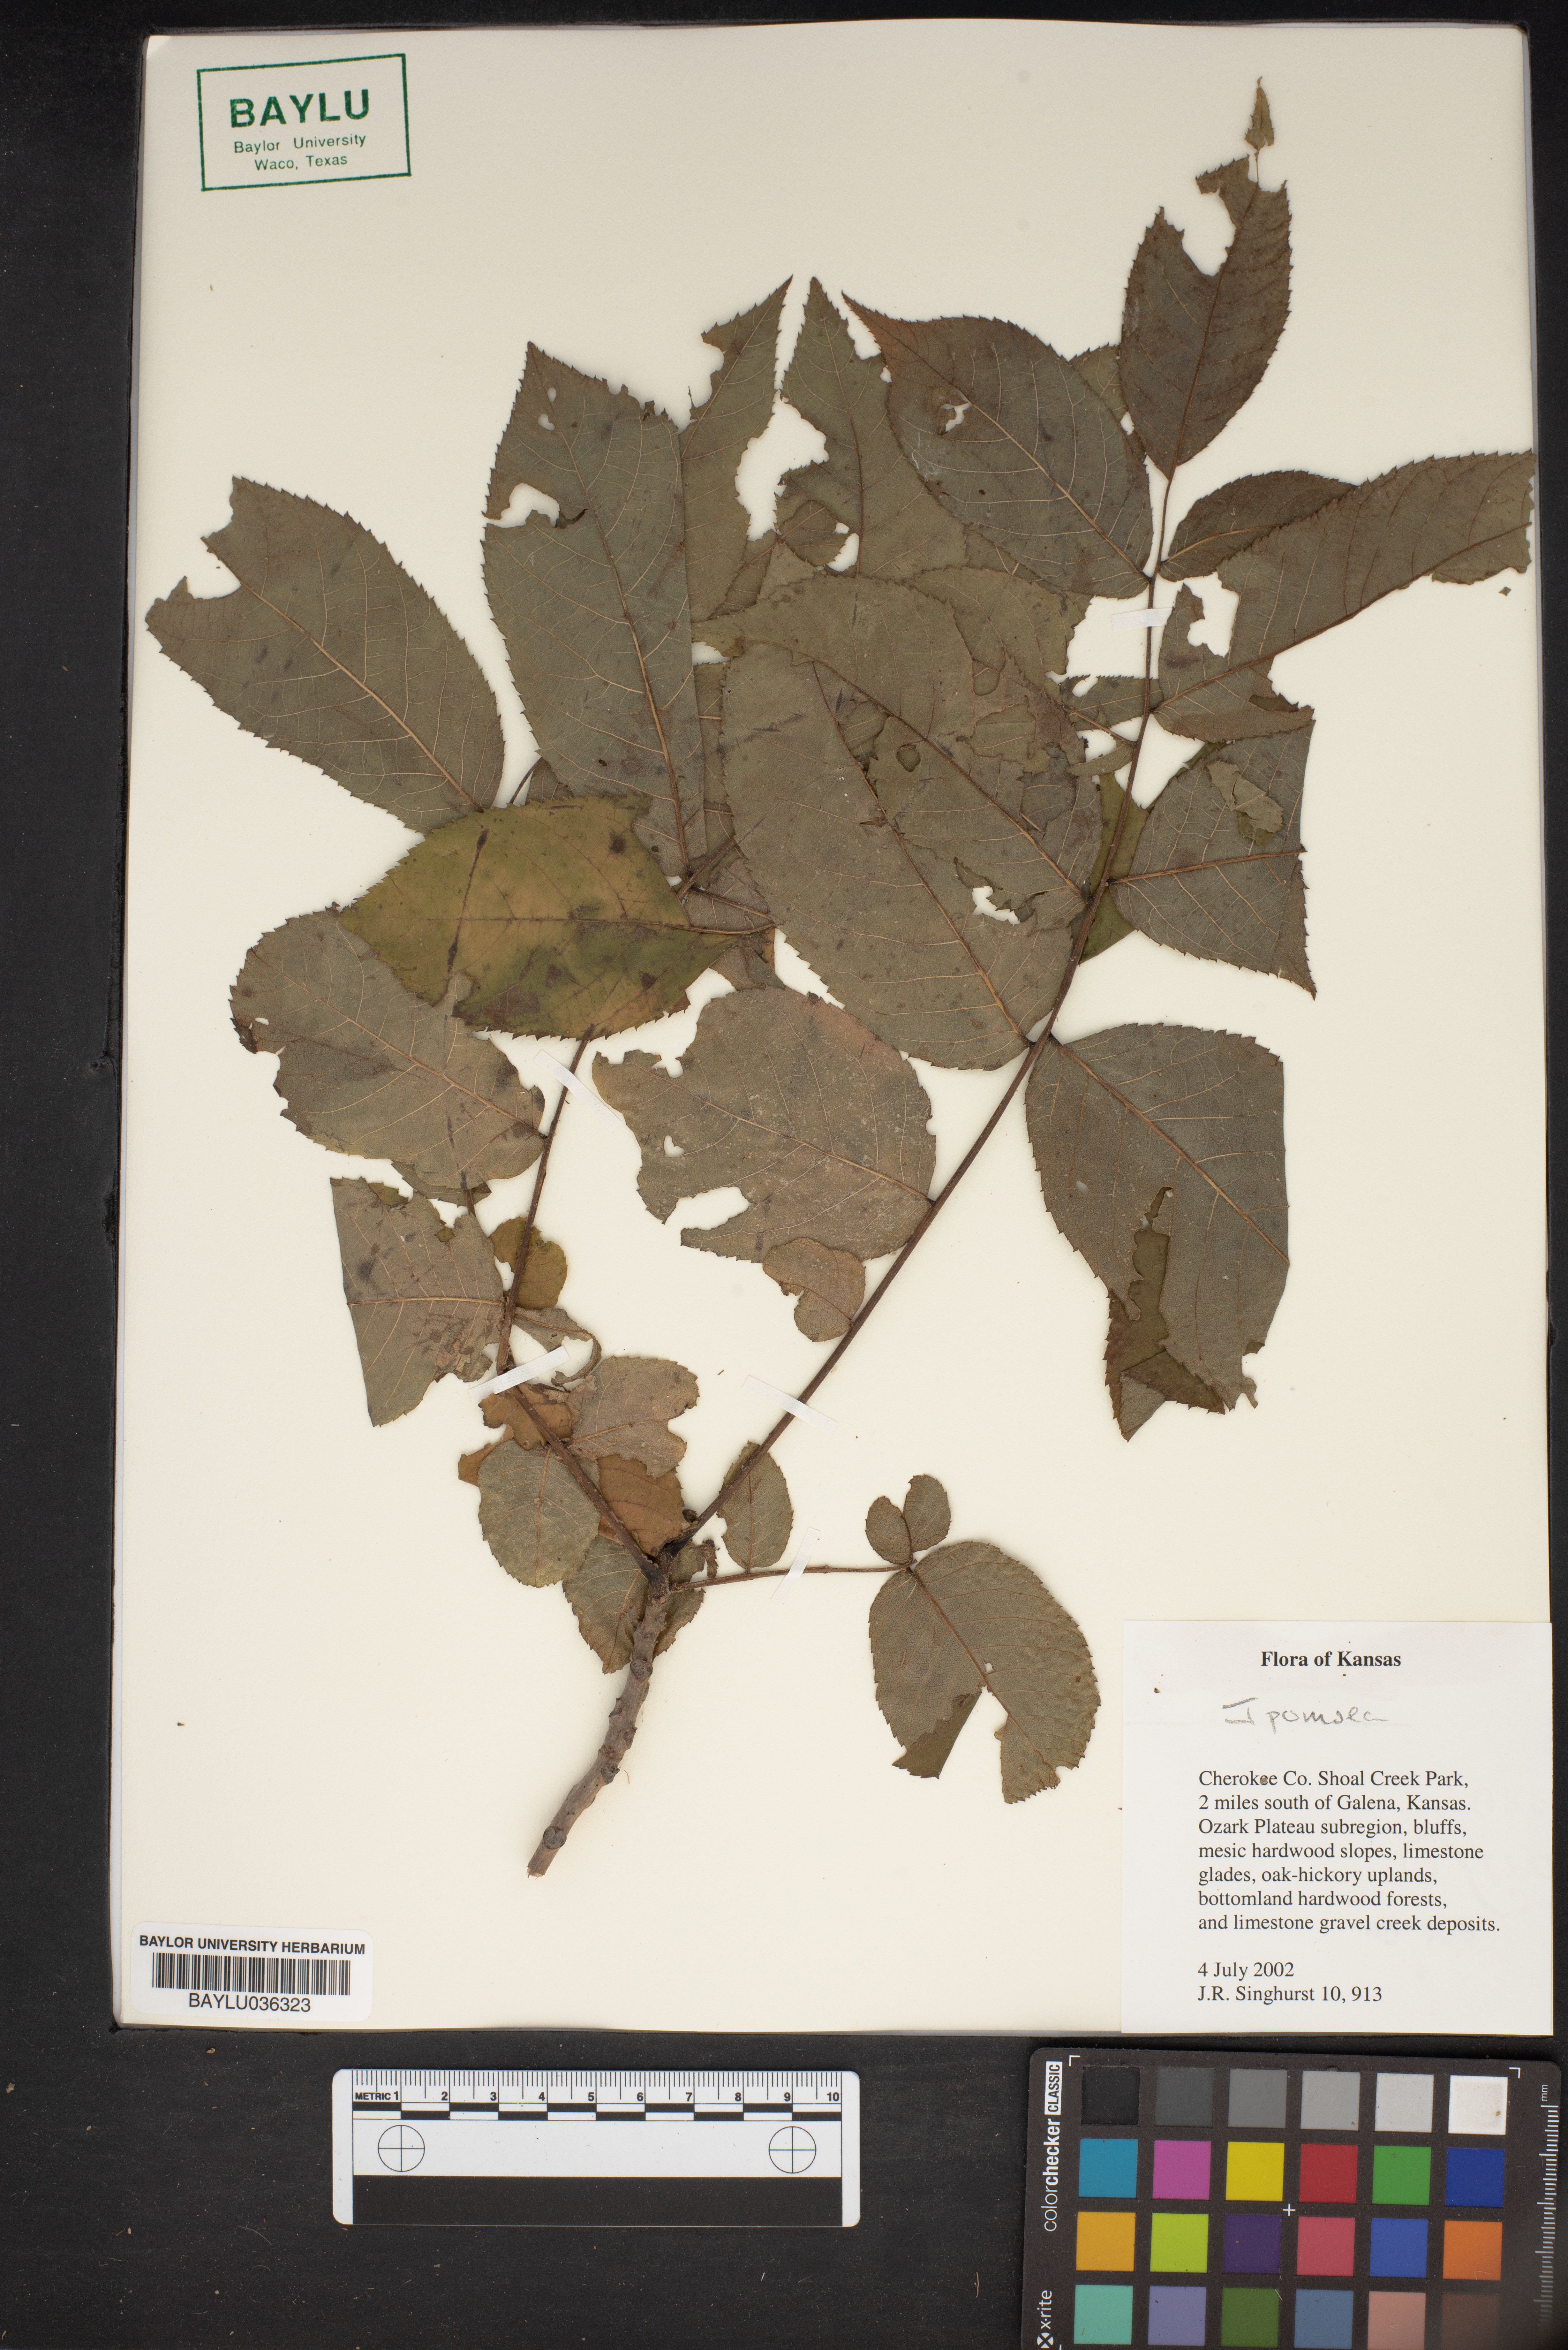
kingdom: Plantae
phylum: Tracheophyta
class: Magnoliopsida
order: Solanales
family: Convolvulaceae
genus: Ipomoea
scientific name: Ipomoea
